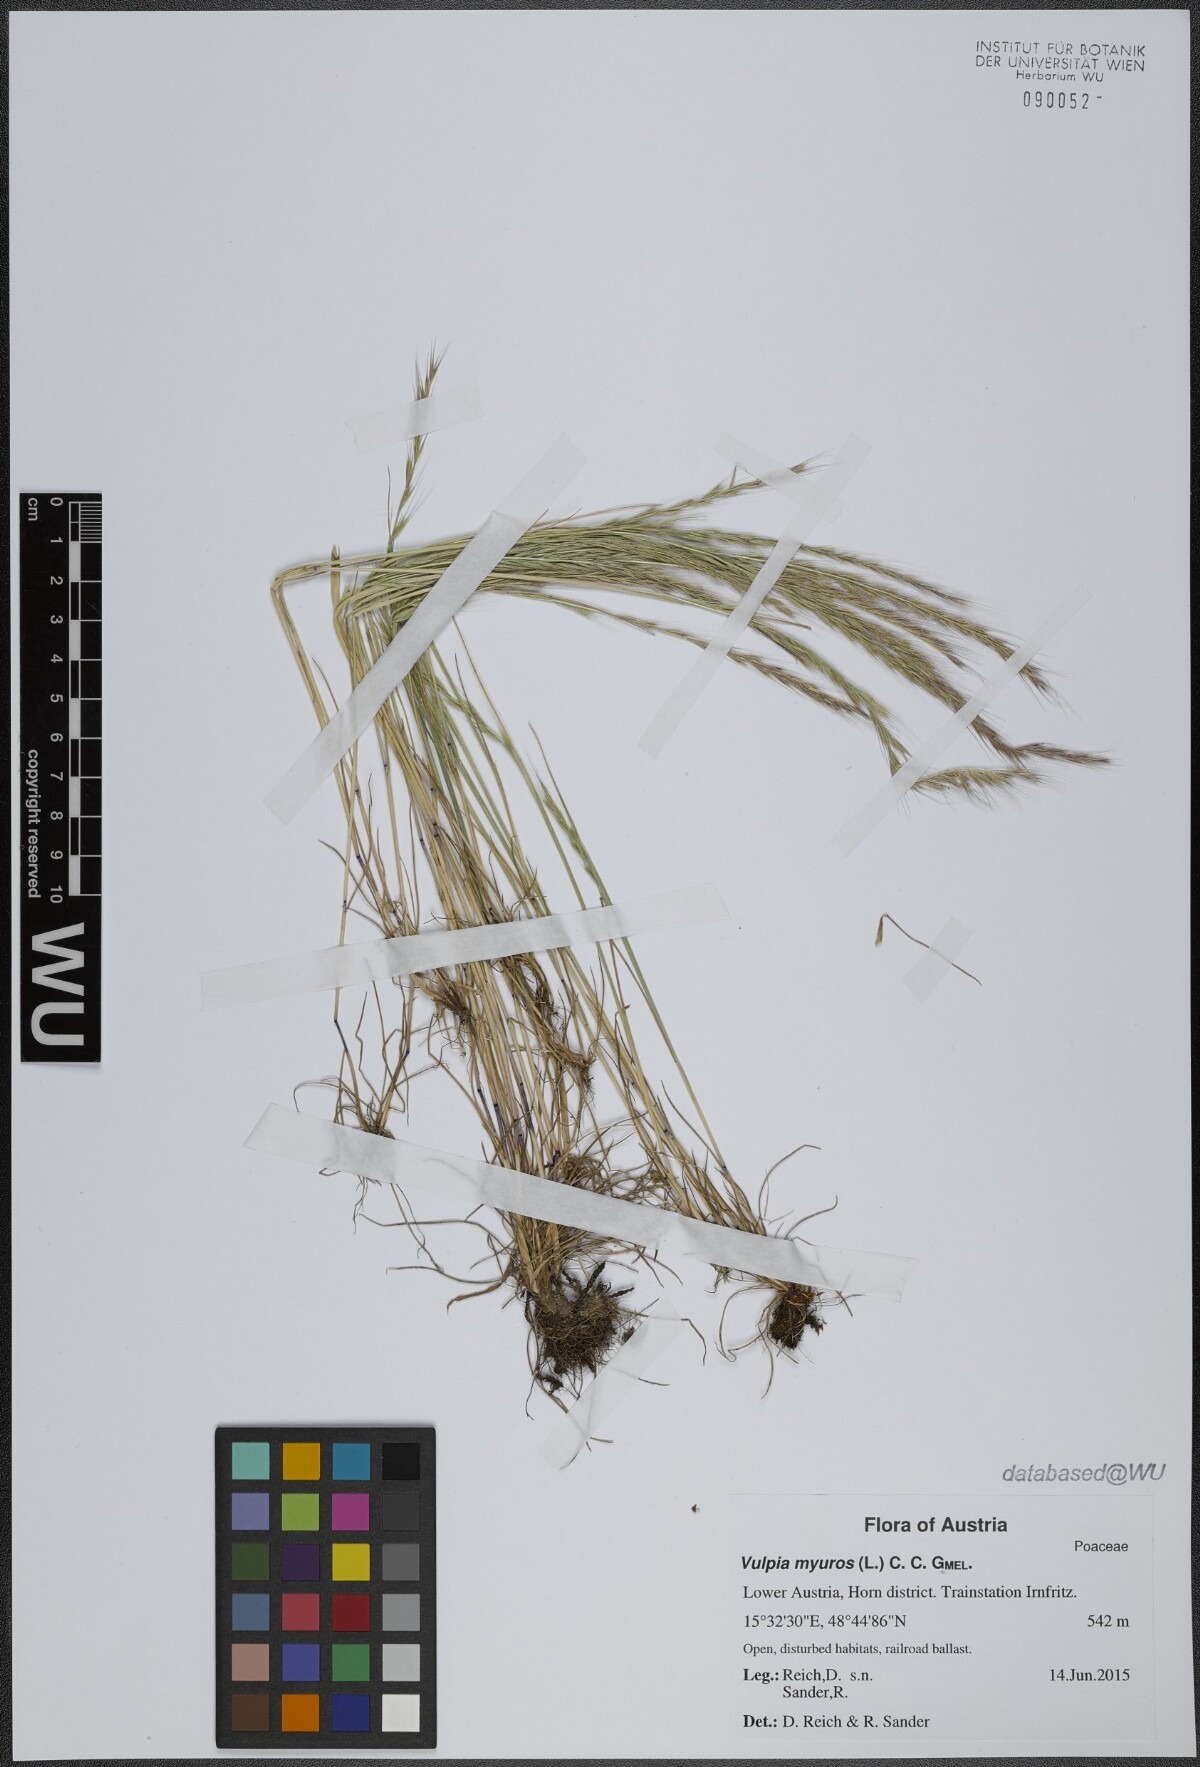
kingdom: Plantae
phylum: Tracheophyta
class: Liliopsida
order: Poales
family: Poaceae
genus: Festuca
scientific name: Festuca myuros
